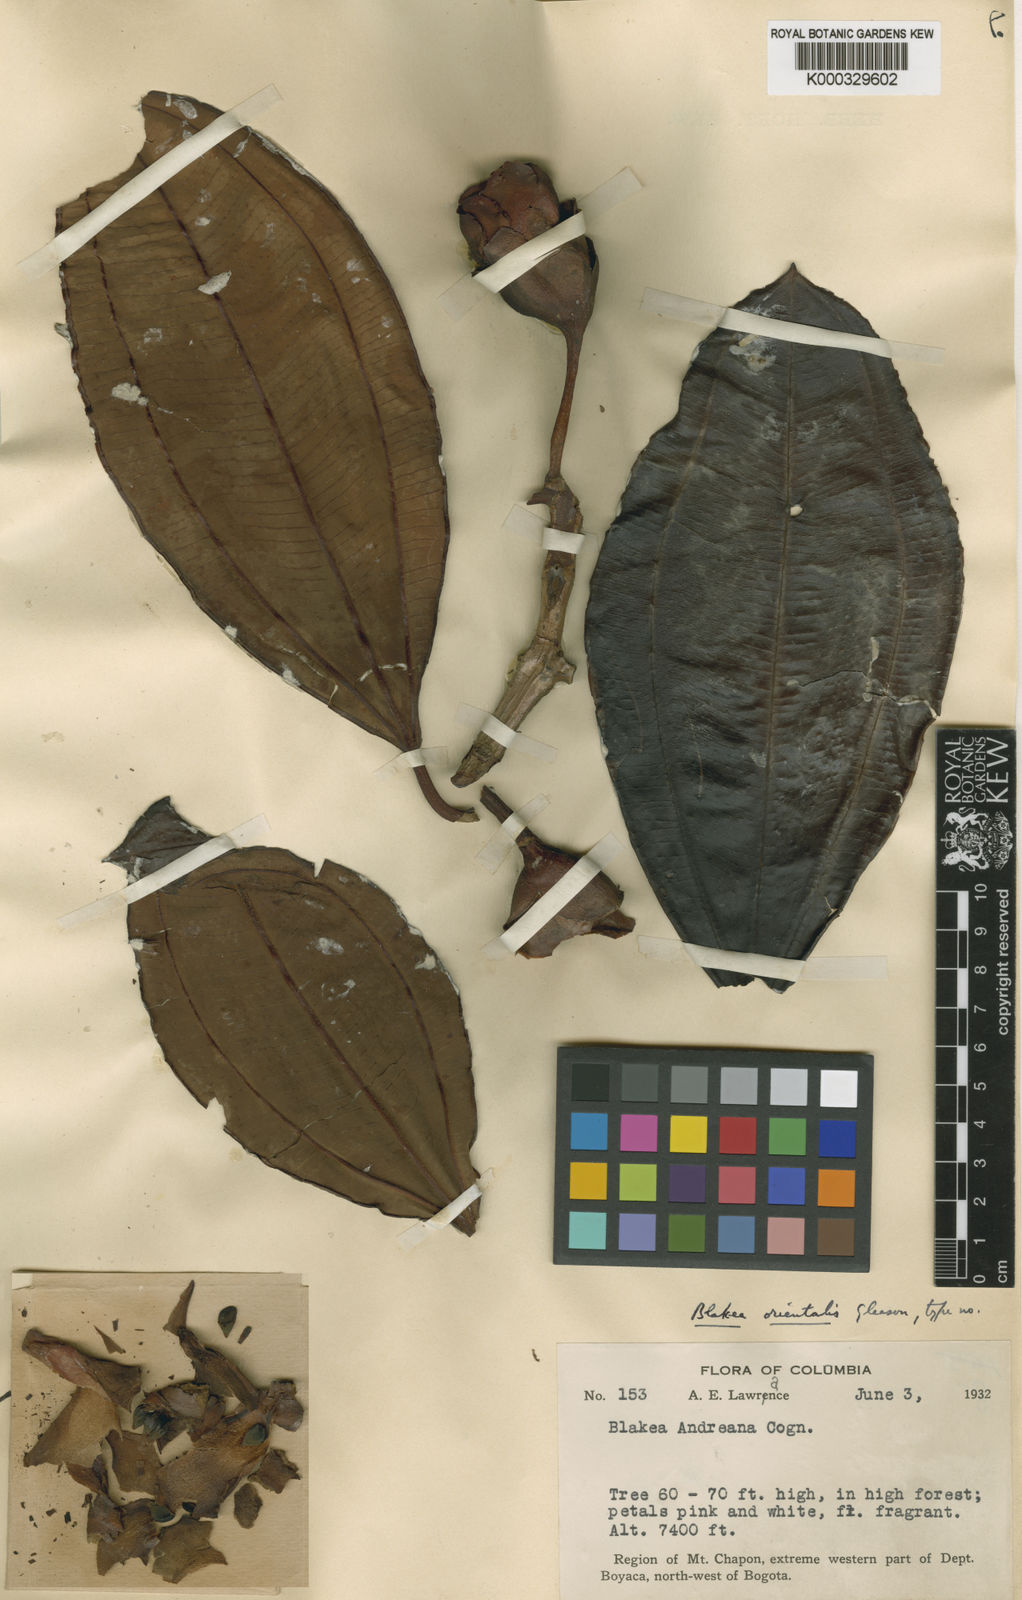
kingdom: Plantae
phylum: Tracheophyta
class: Magnoliopsida
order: Myrtales
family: Melastomataceae
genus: Blakea
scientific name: Blakea orientalis
